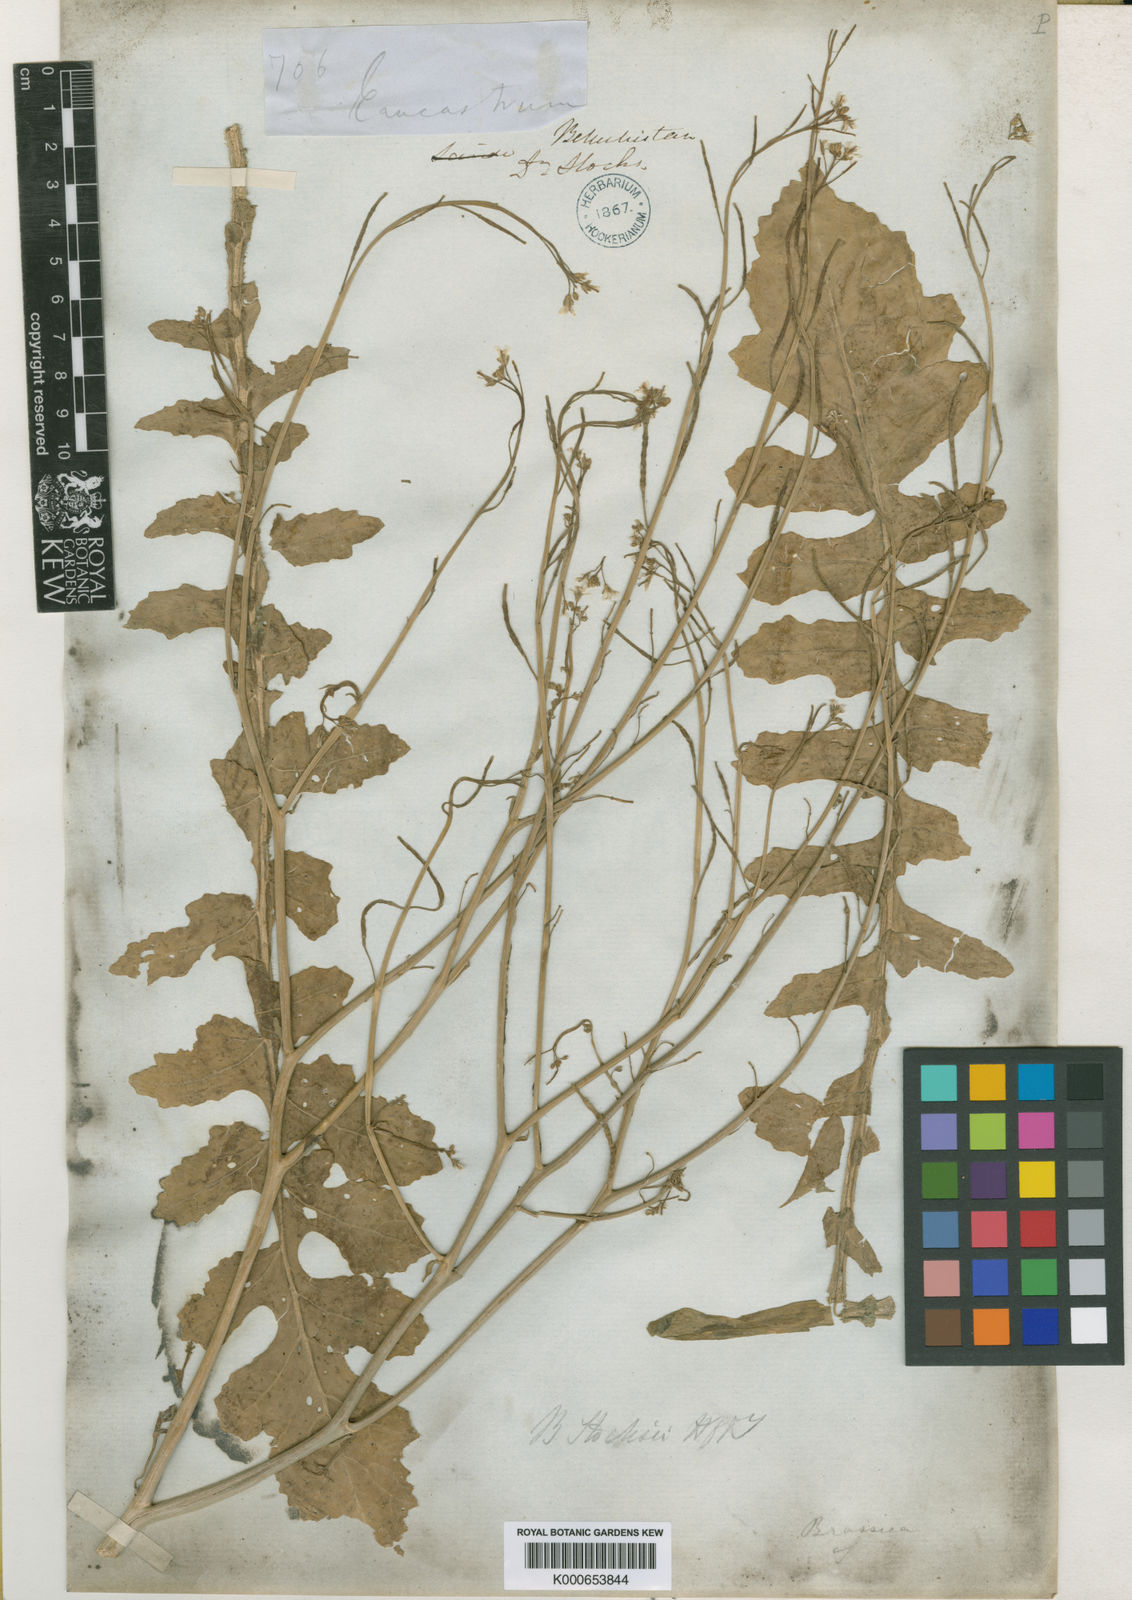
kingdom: Plantae
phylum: Tracheophyta
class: Magnoliopsida
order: Brassicales
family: Brassicaceae
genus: Brassica
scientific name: Brassica tournefortii
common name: Pale cabbage
